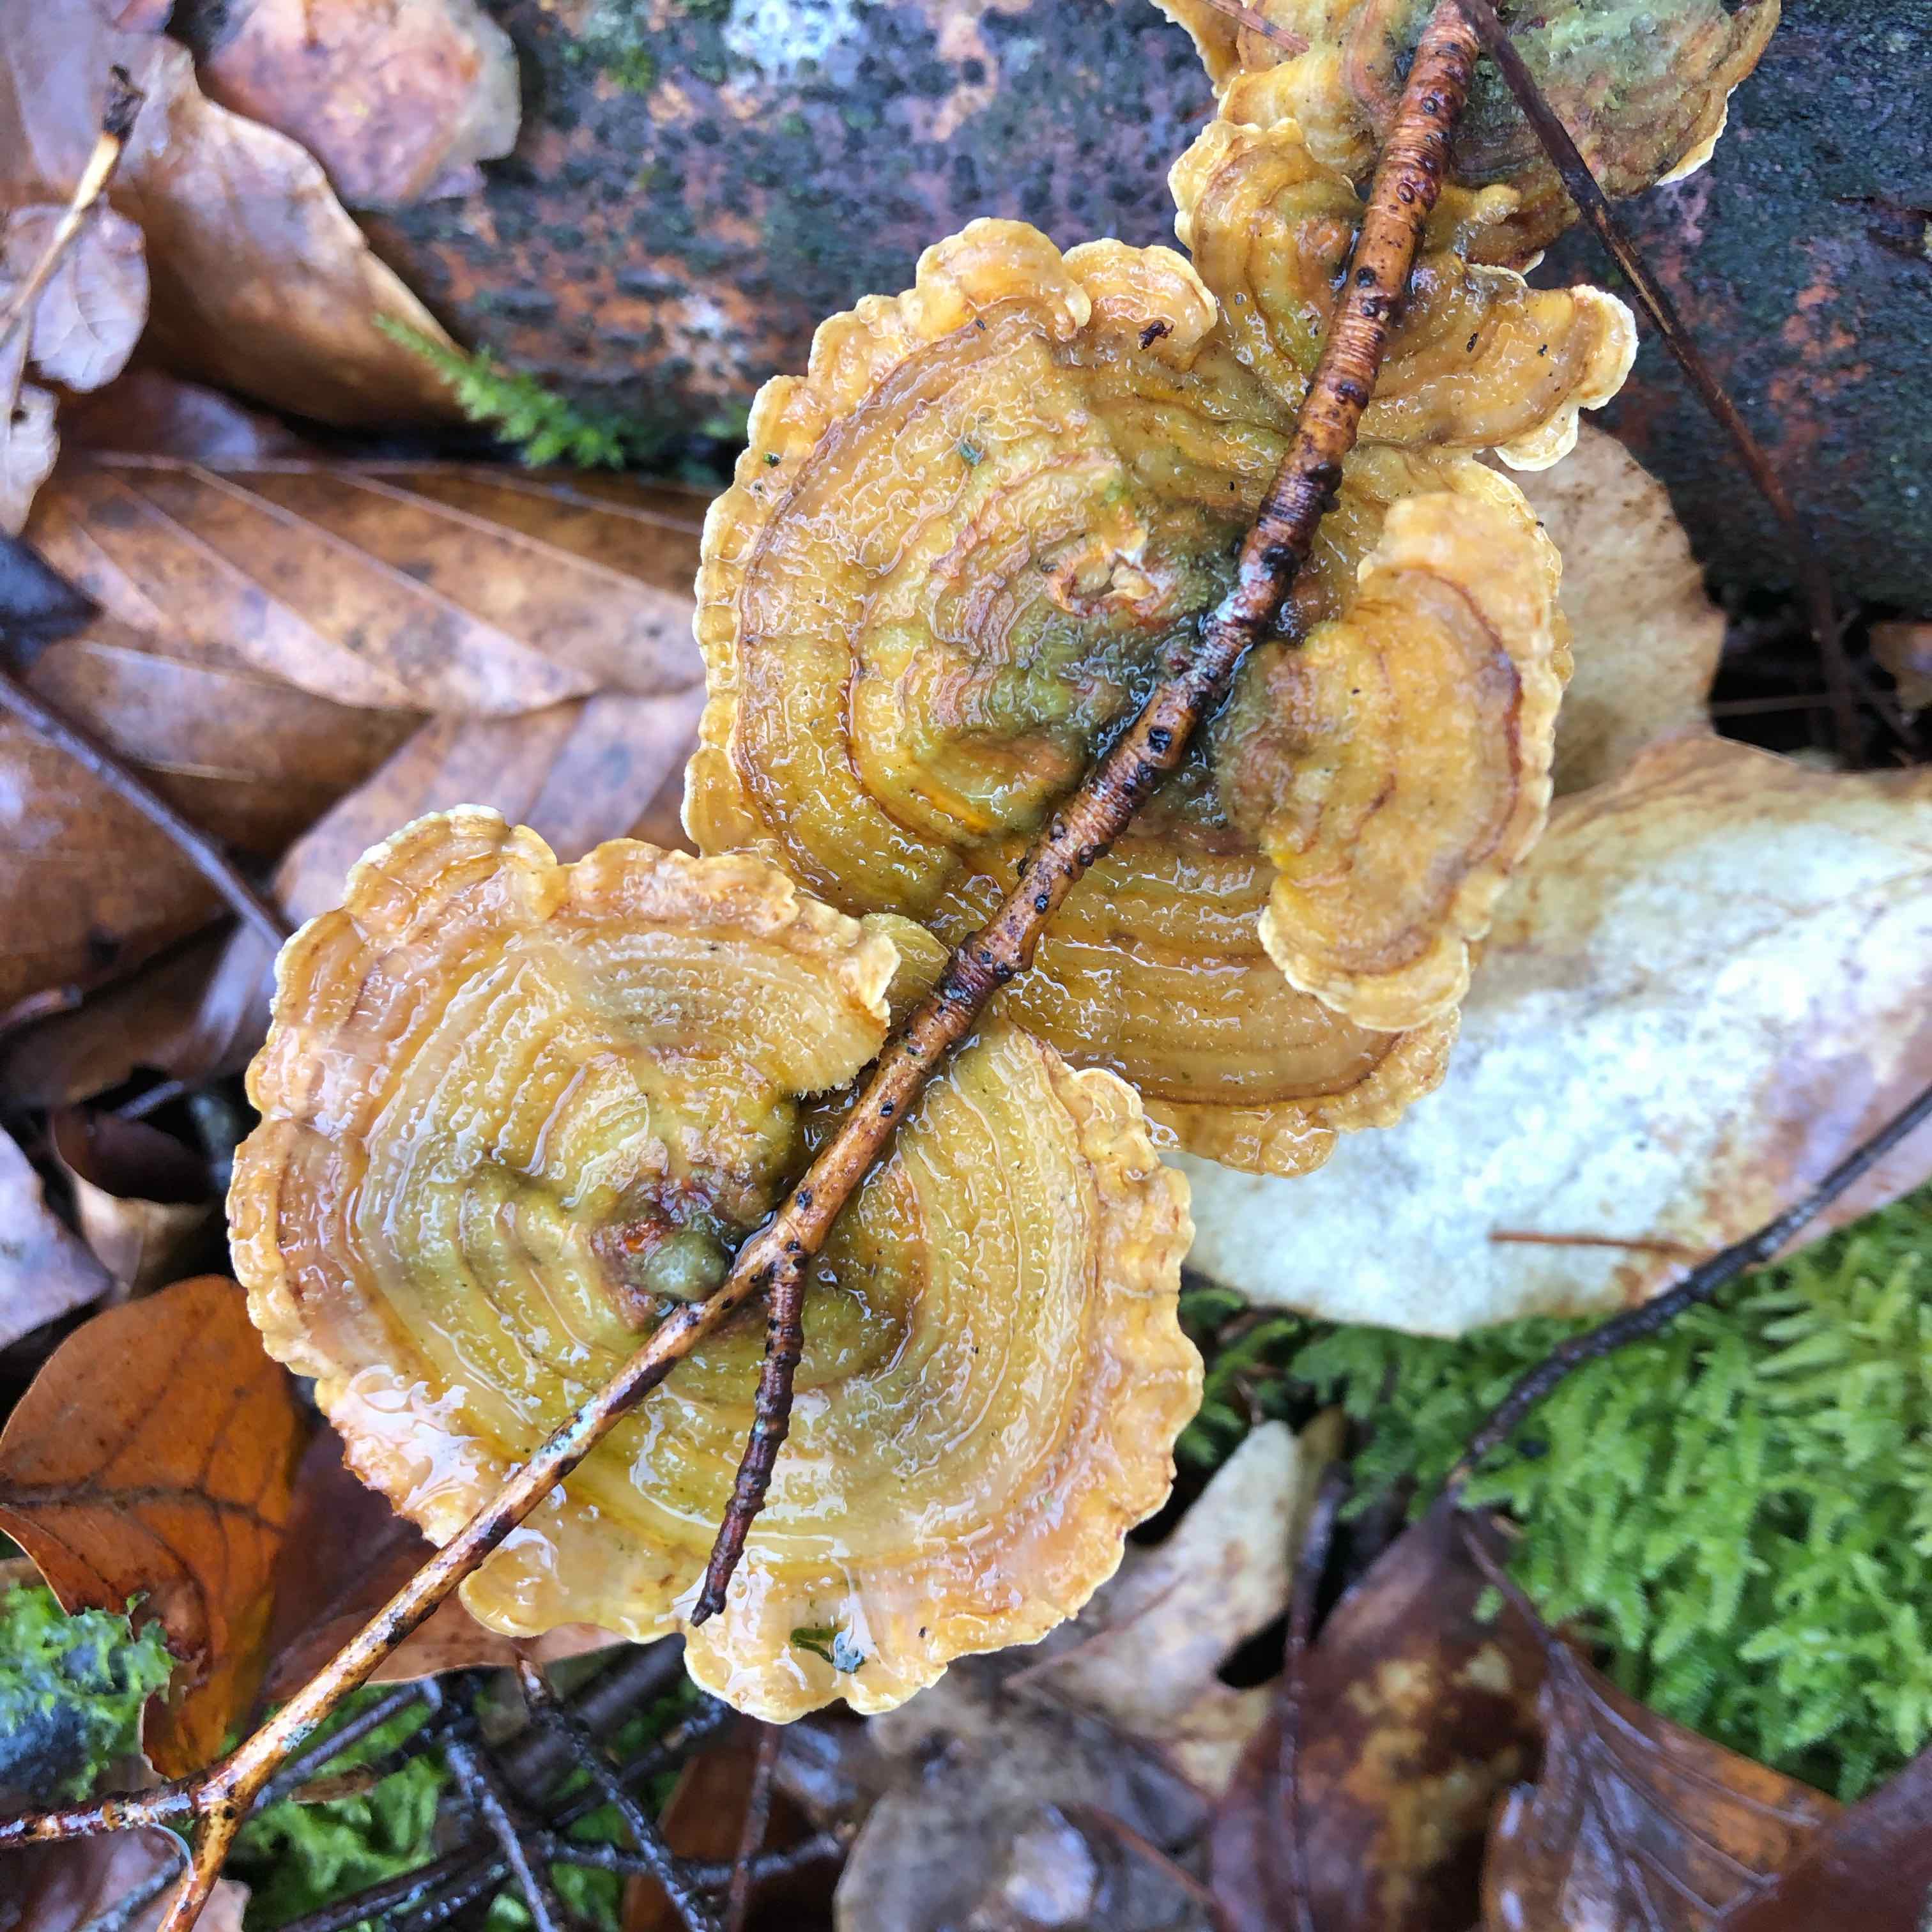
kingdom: Fungi
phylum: Basidiomycota
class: Agaricomycetes
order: Russulales
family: Stereaceae
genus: Stereum
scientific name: Stereum hirsutum
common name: håret lædersvamp
